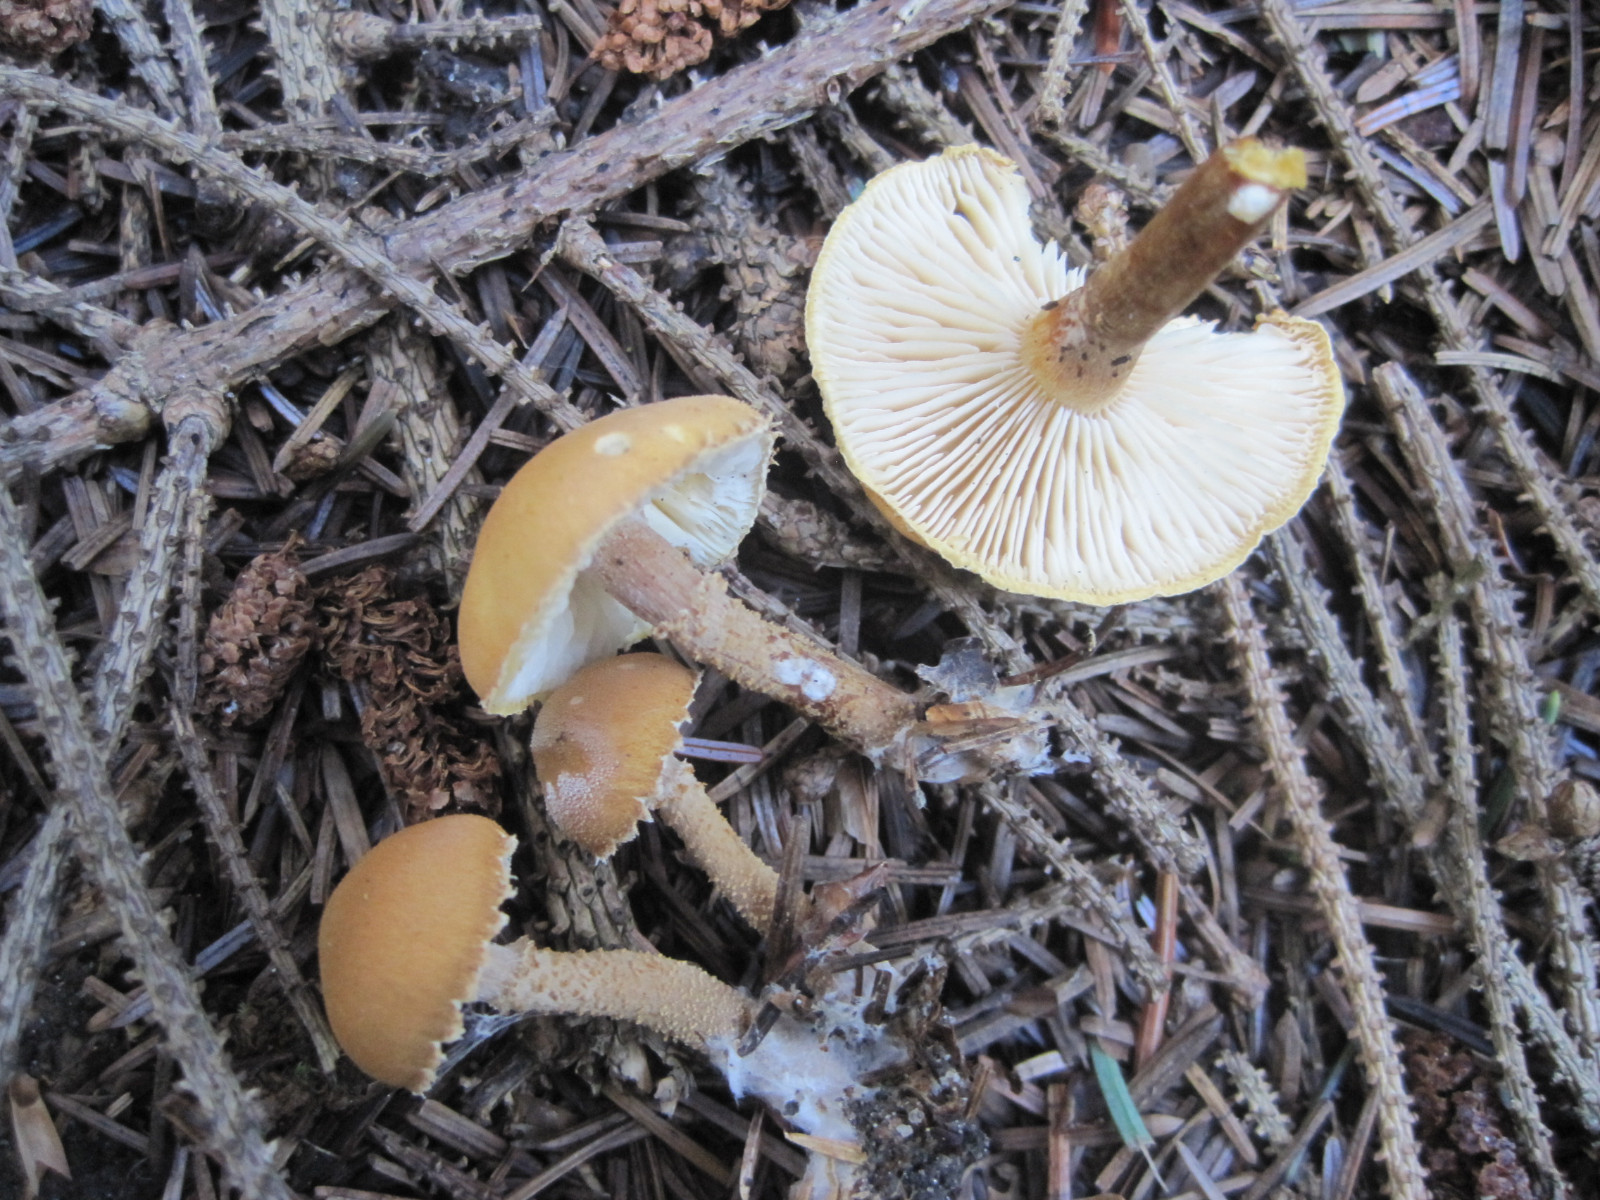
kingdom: Fungi
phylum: Basidiomycota
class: Agaricomycetes
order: Agaricales
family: Tricholomataceae
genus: Cystoderma
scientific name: Cystoderma amianthinum
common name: okkergul grynhat
